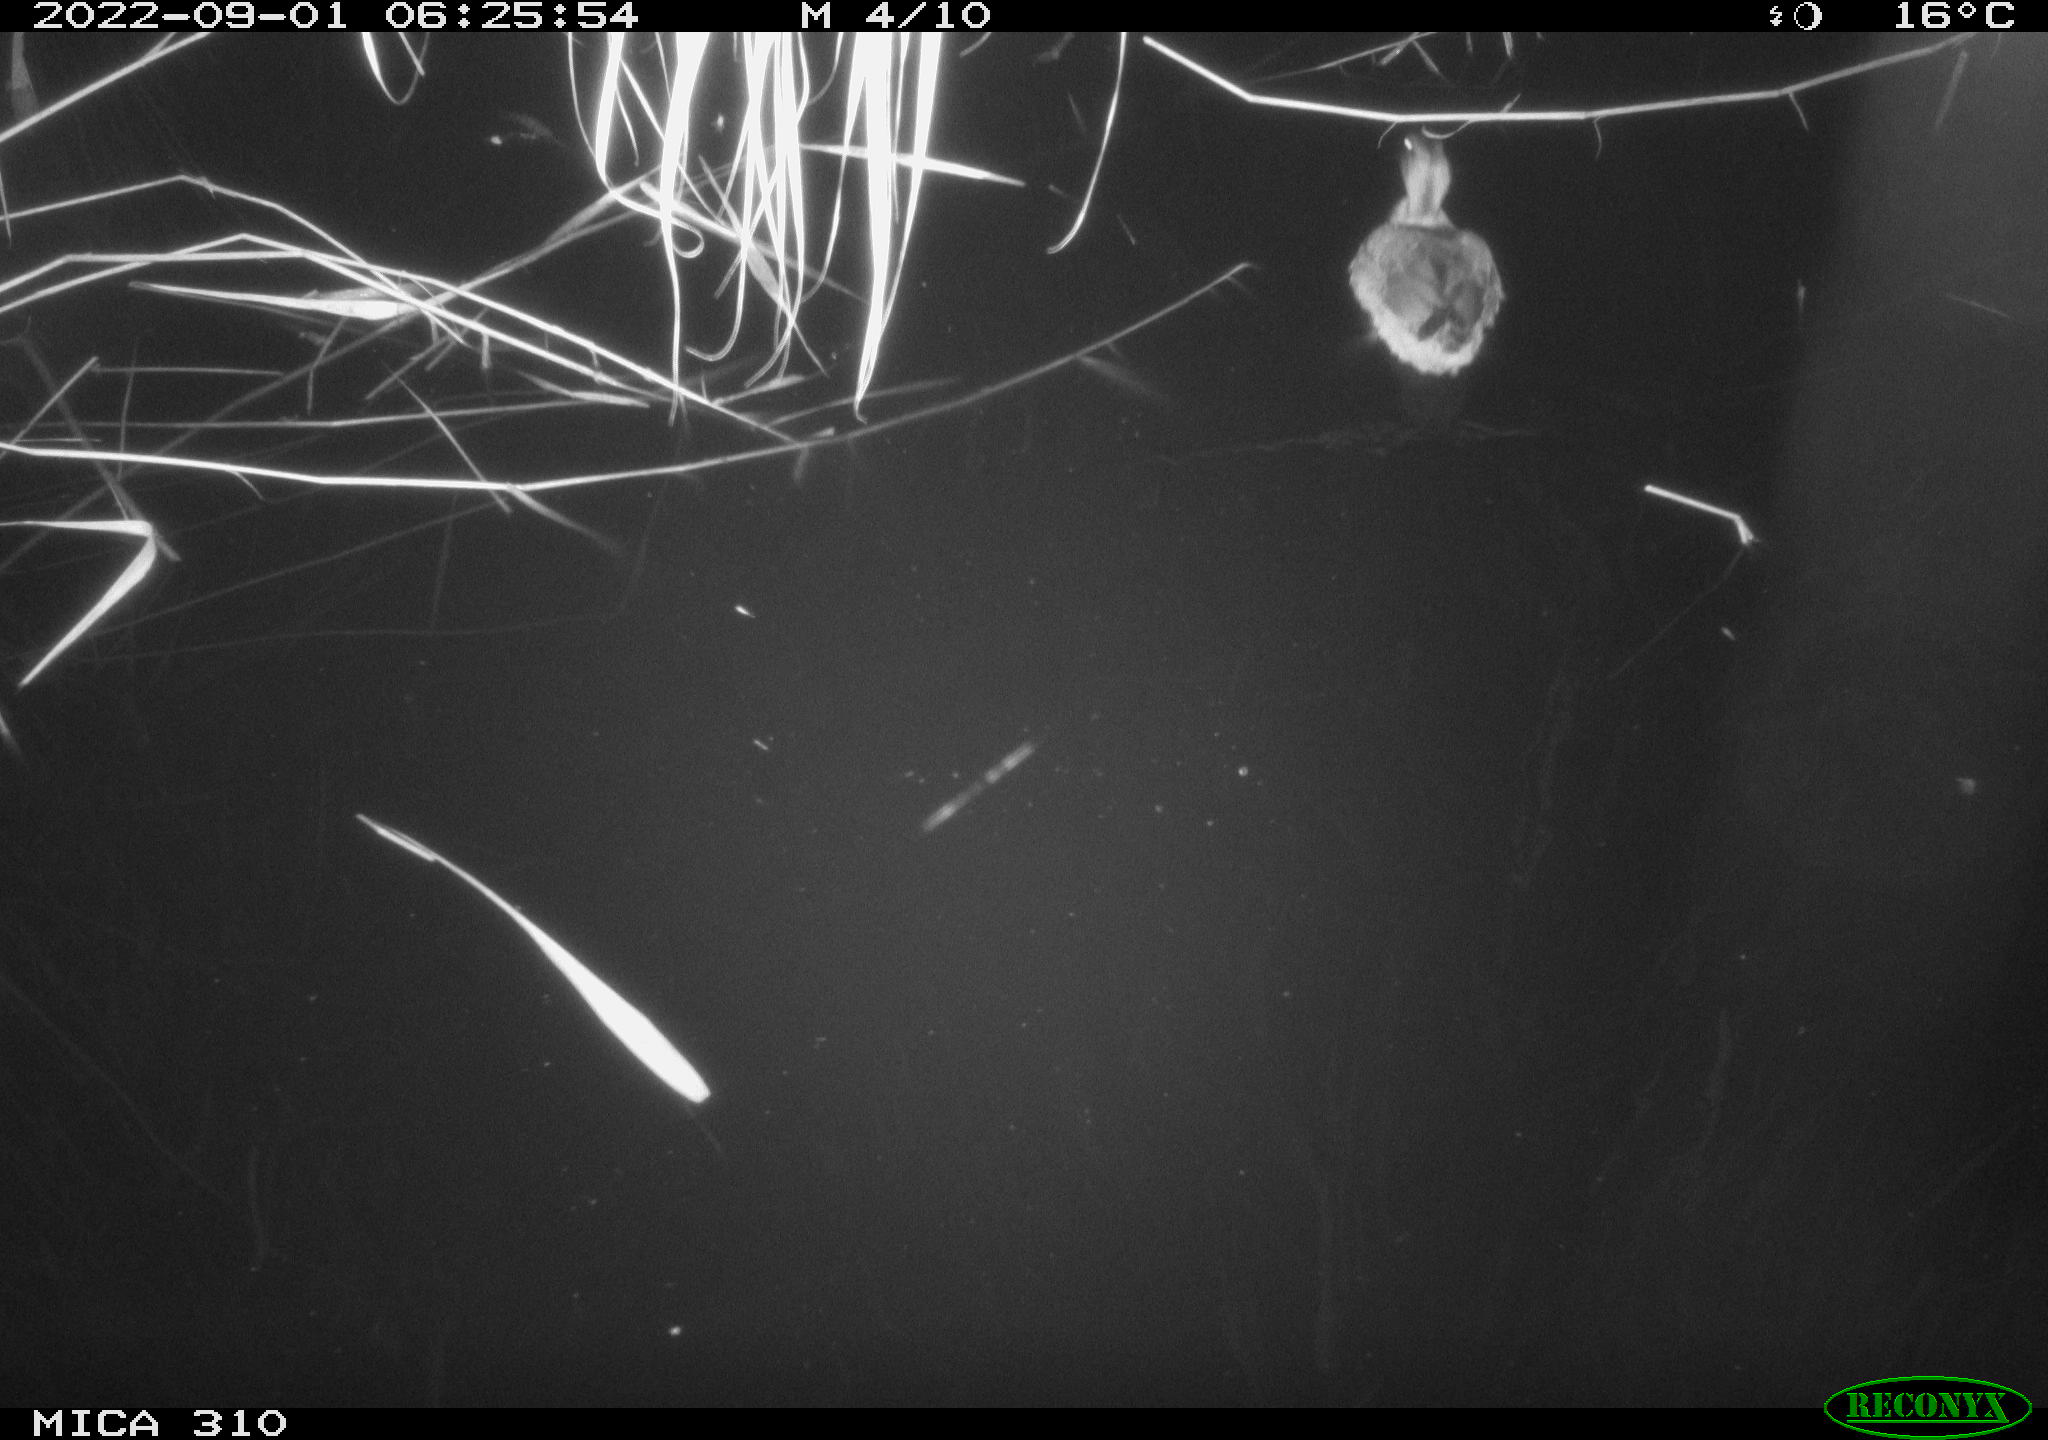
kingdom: Animalia
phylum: Chordata
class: Aves
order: Anseriformes
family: Anatidae
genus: Anas
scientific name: Anas platyrhynchos
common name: Mallard
